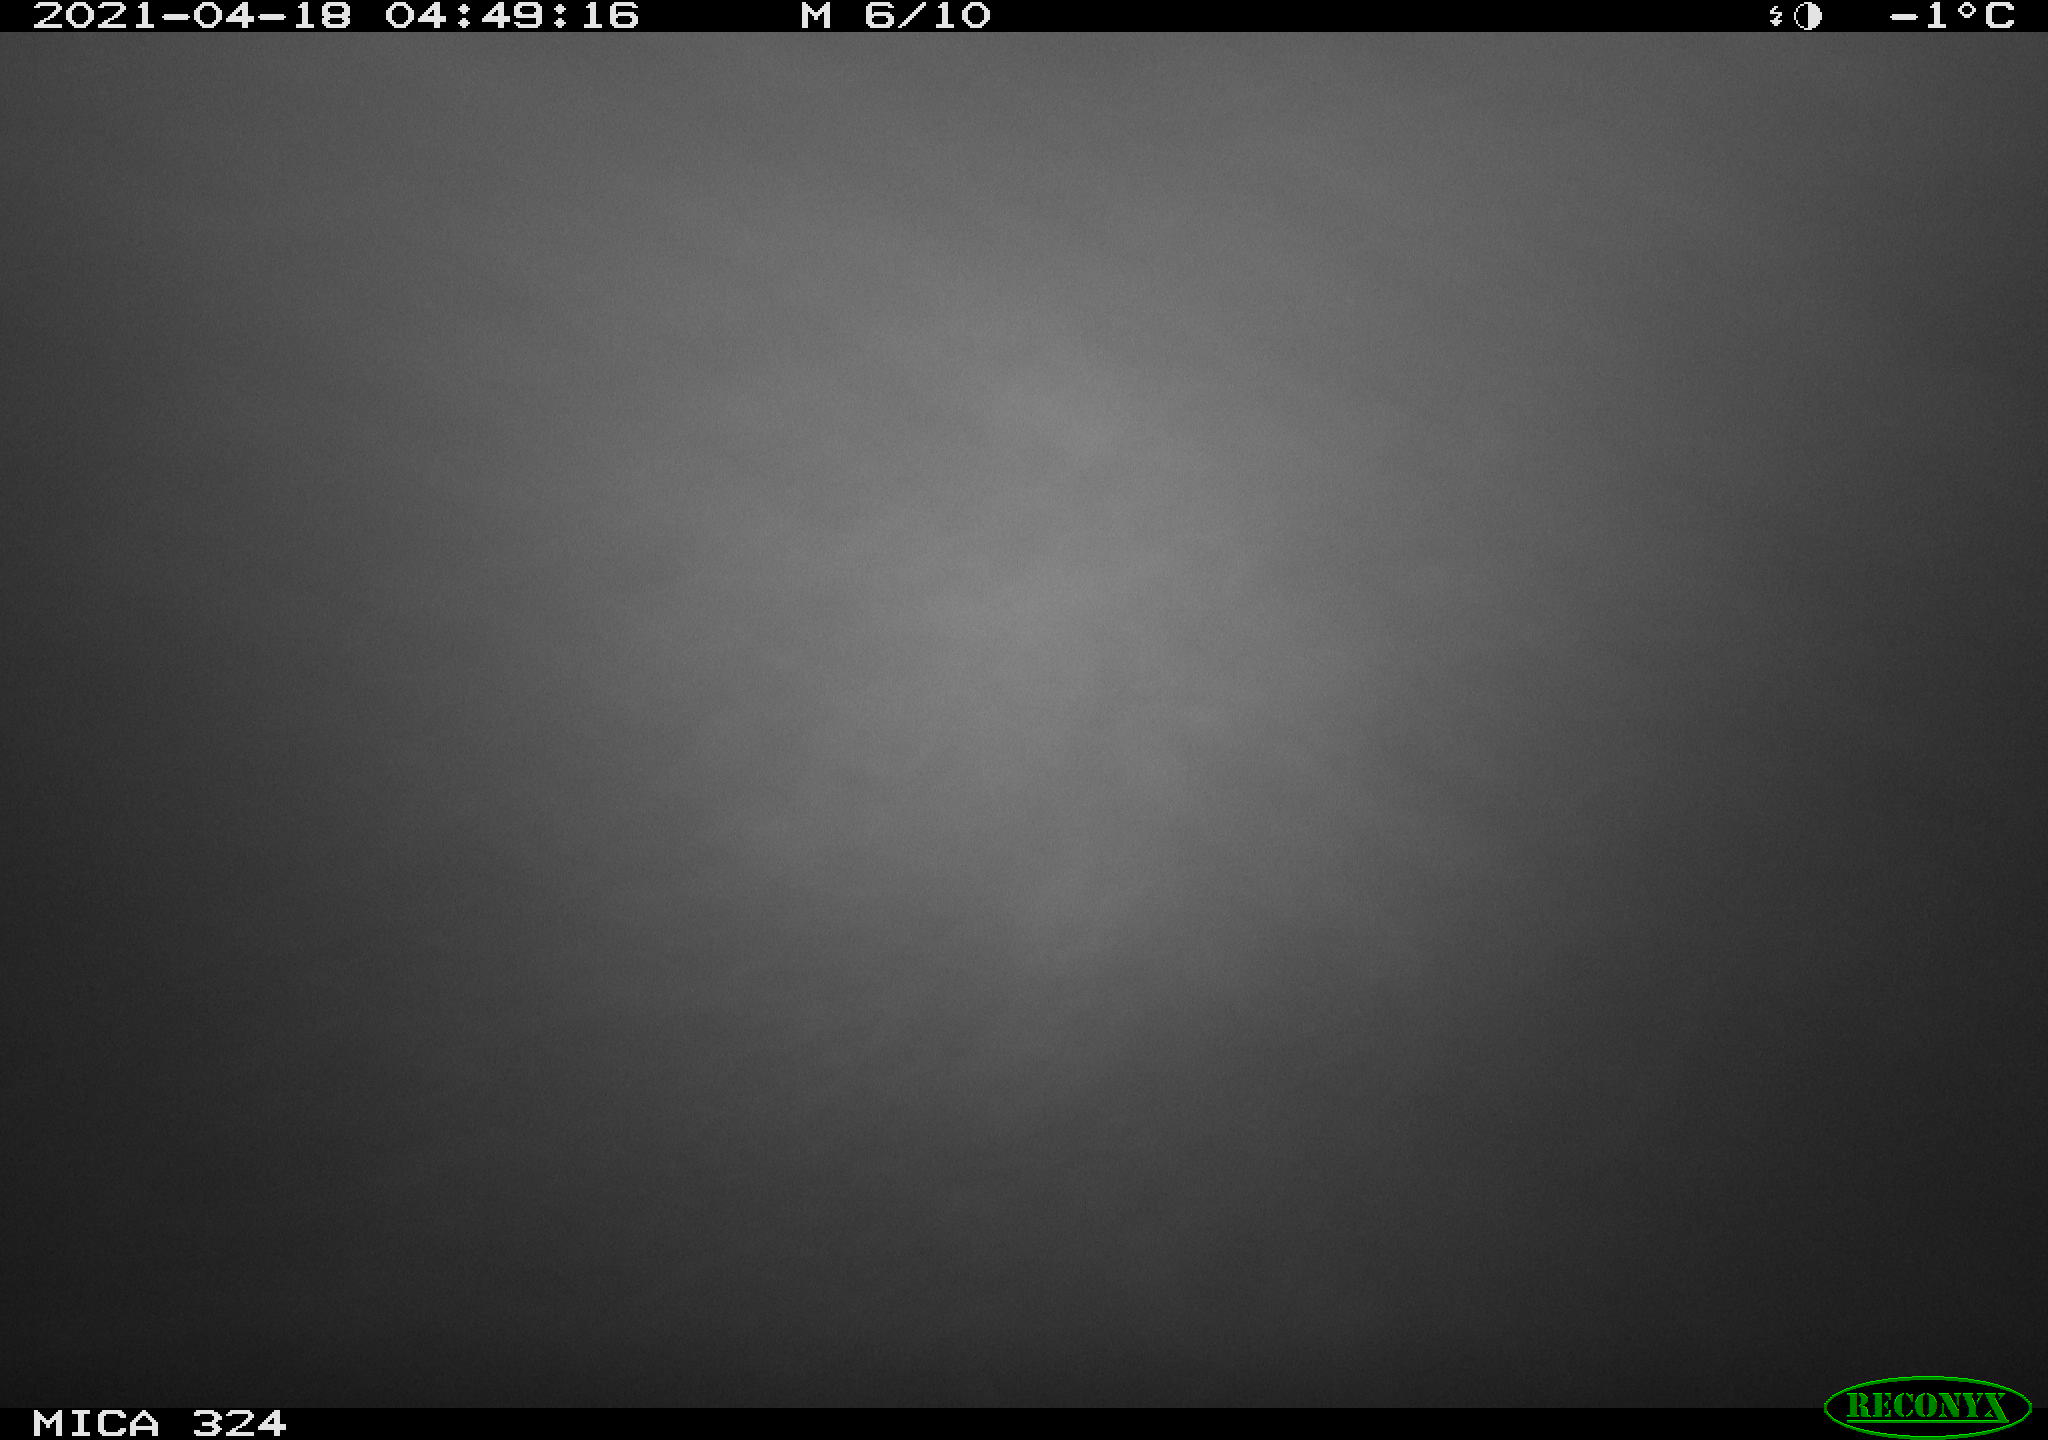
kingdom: Animalia
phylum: Chordata
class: Aves
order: Anseriformes
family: Anatidae
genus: Anas
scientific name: Anas platyrhynchos
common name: Mallard
